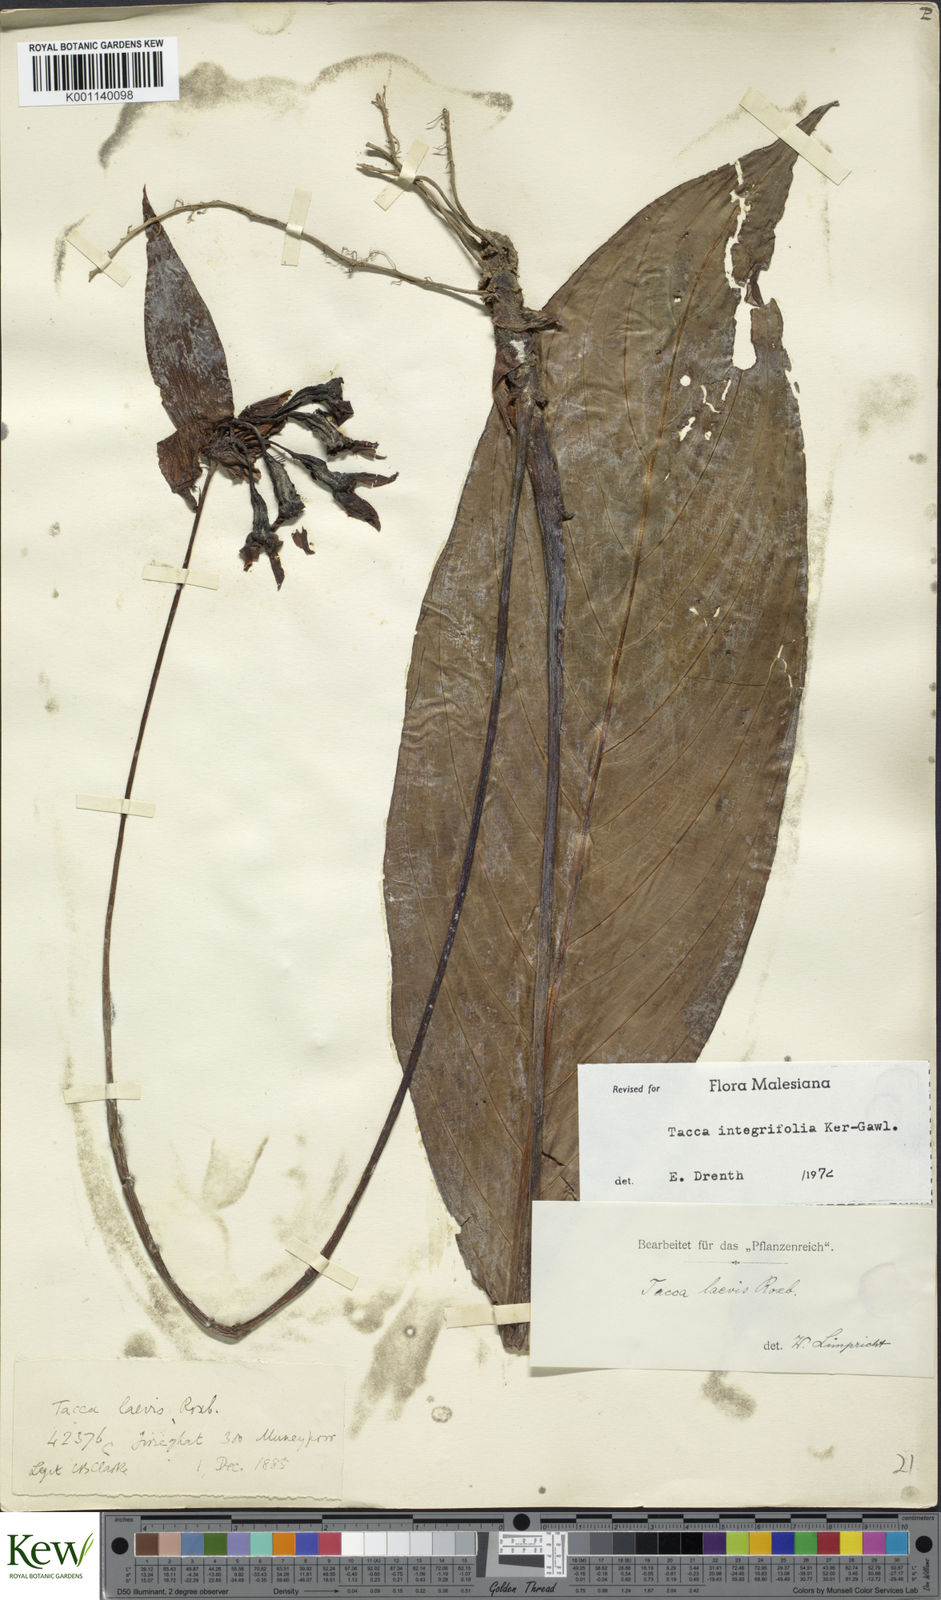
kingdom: Plantae
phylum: Tracheophyta
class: Liliopsida
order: Dioscoreales
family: Dioscoreaceae
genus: Tacca
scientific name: Tacca
